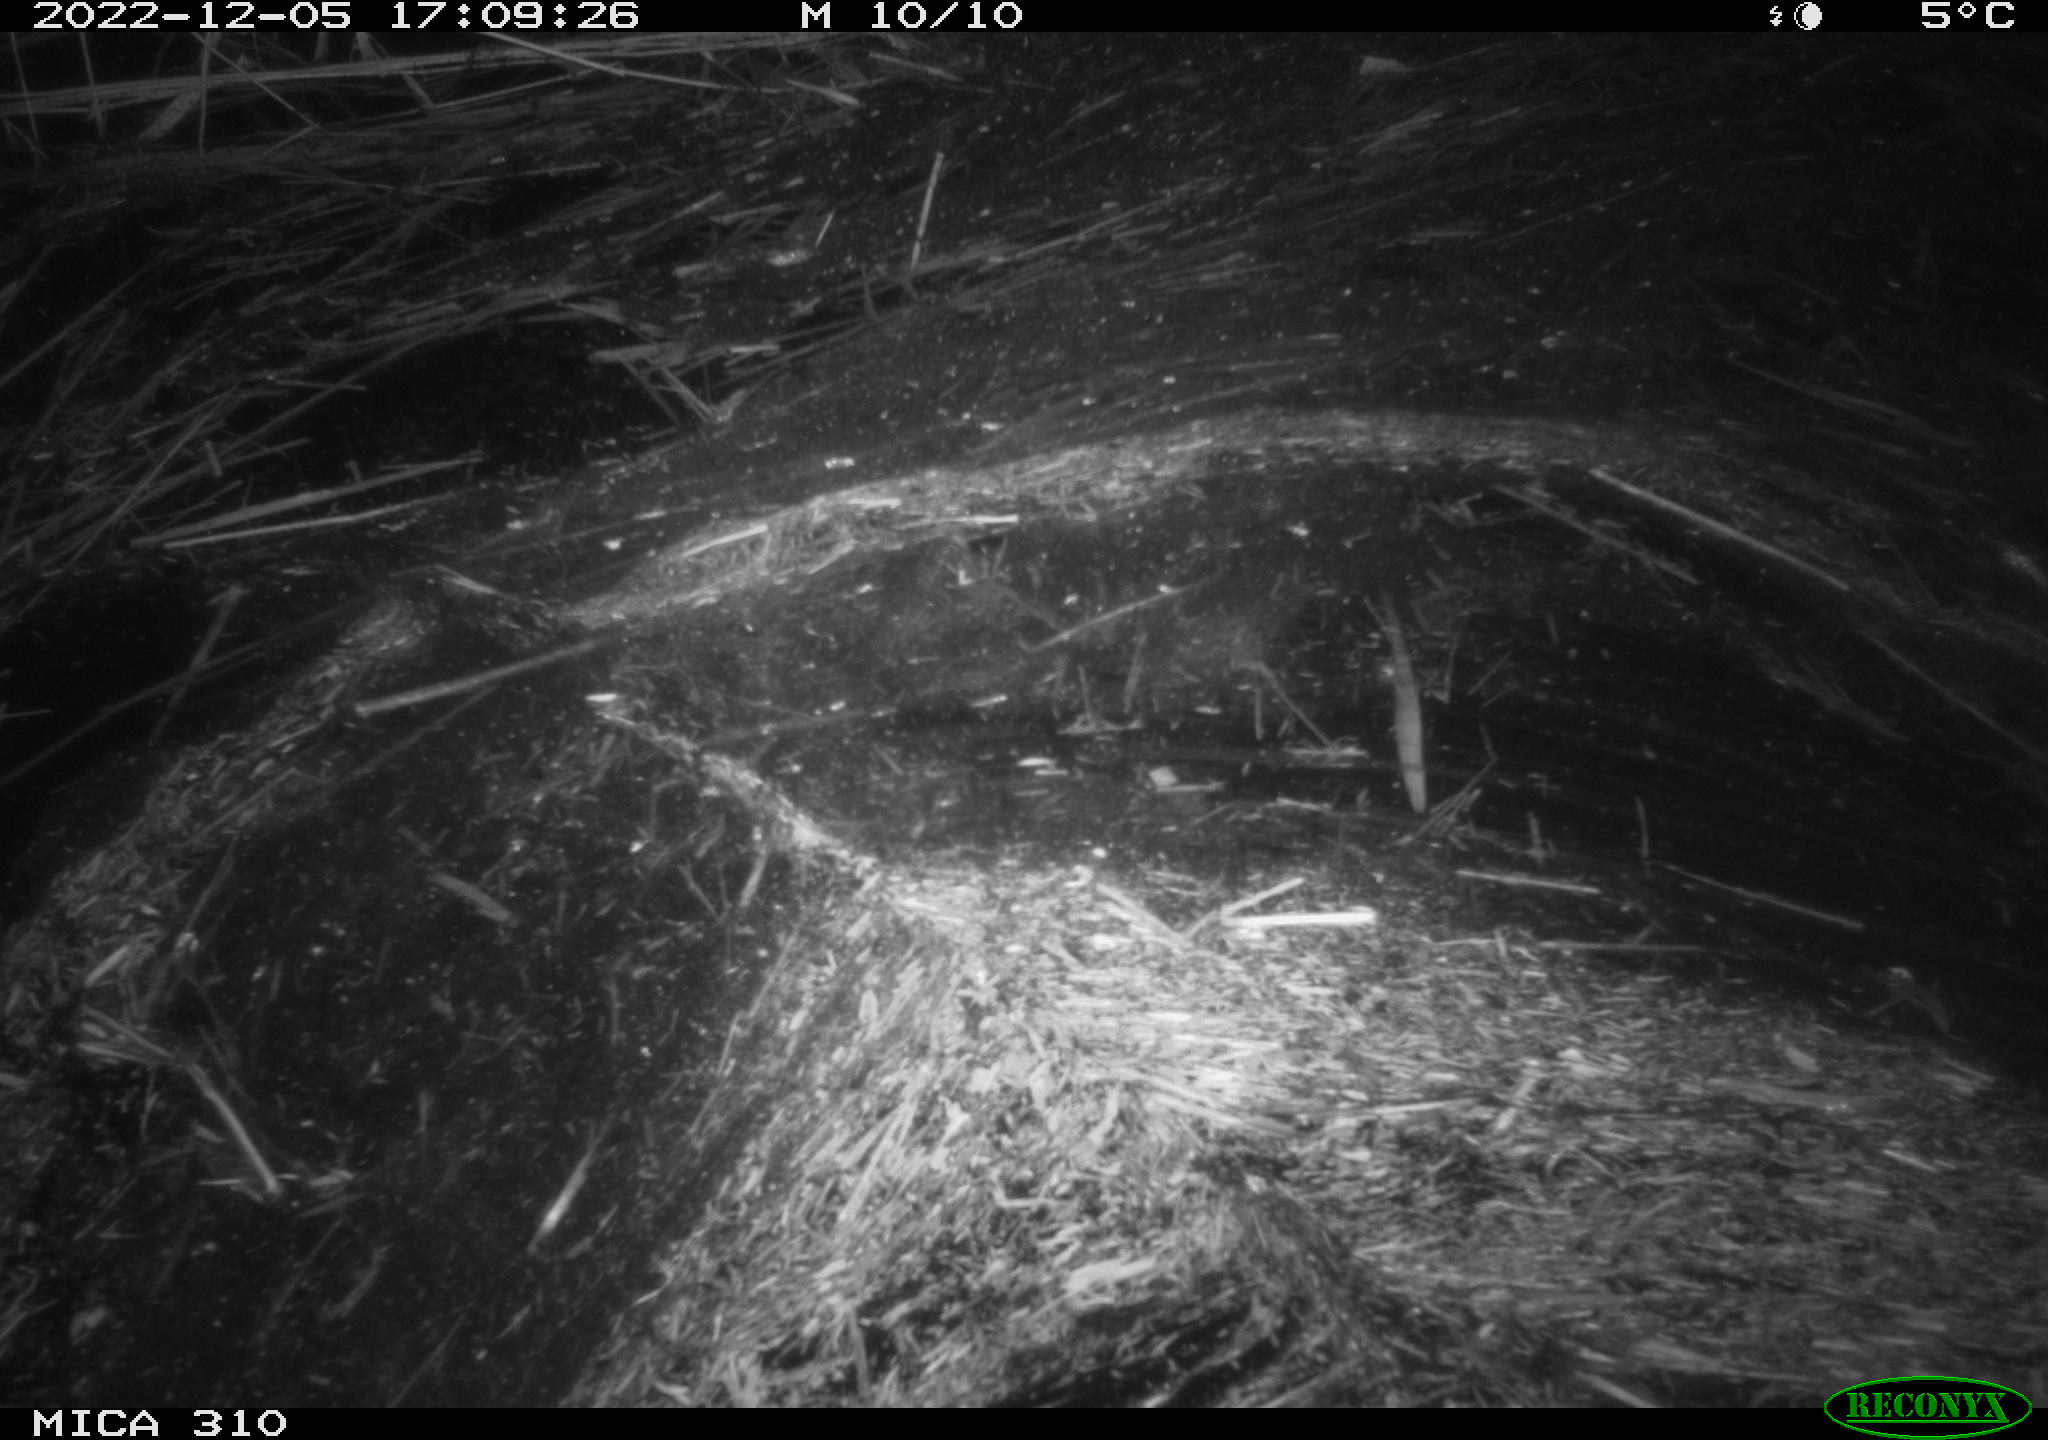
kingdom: Animalia
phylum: Chordata
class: Mammalia
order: Rodentia
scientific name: Rodentia
